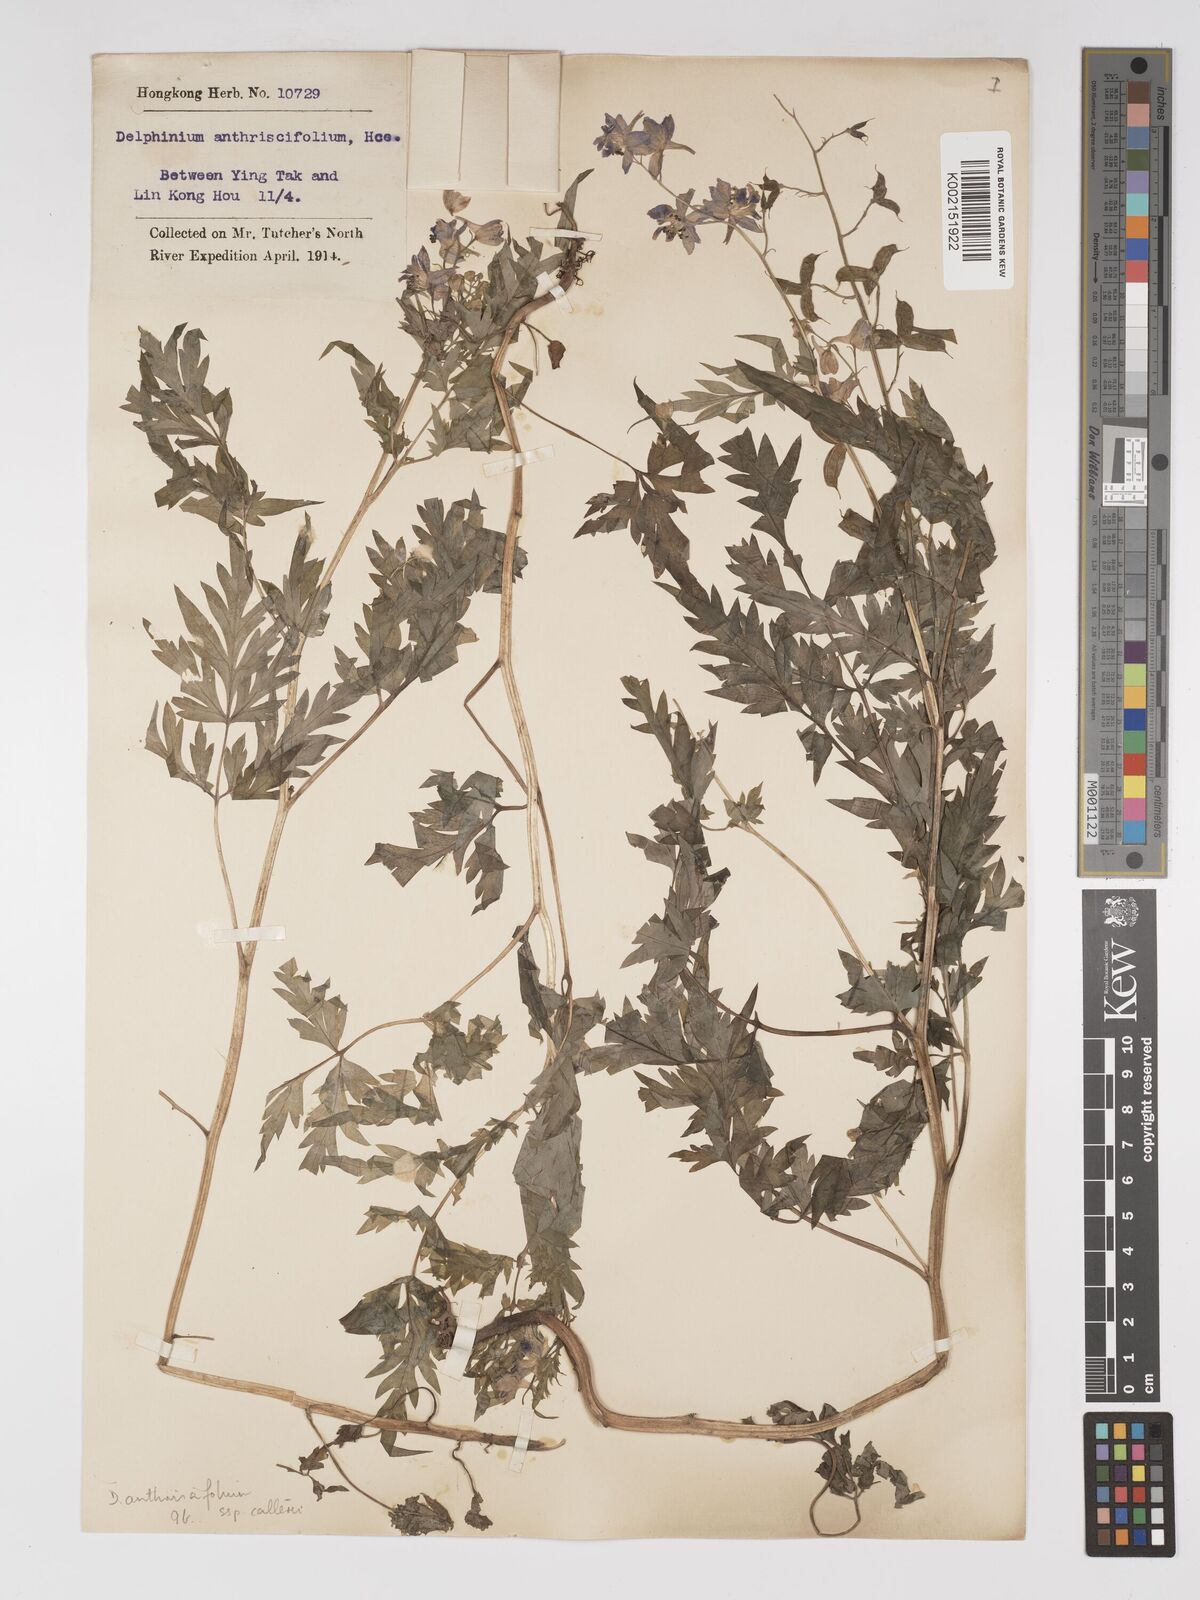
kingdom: Plantae
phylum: Tracheophyta
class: Magnoliopsida
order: Ranunculales
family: Ranunculaceae
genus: Delphinium
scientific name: Delphinium anthriscifolium
